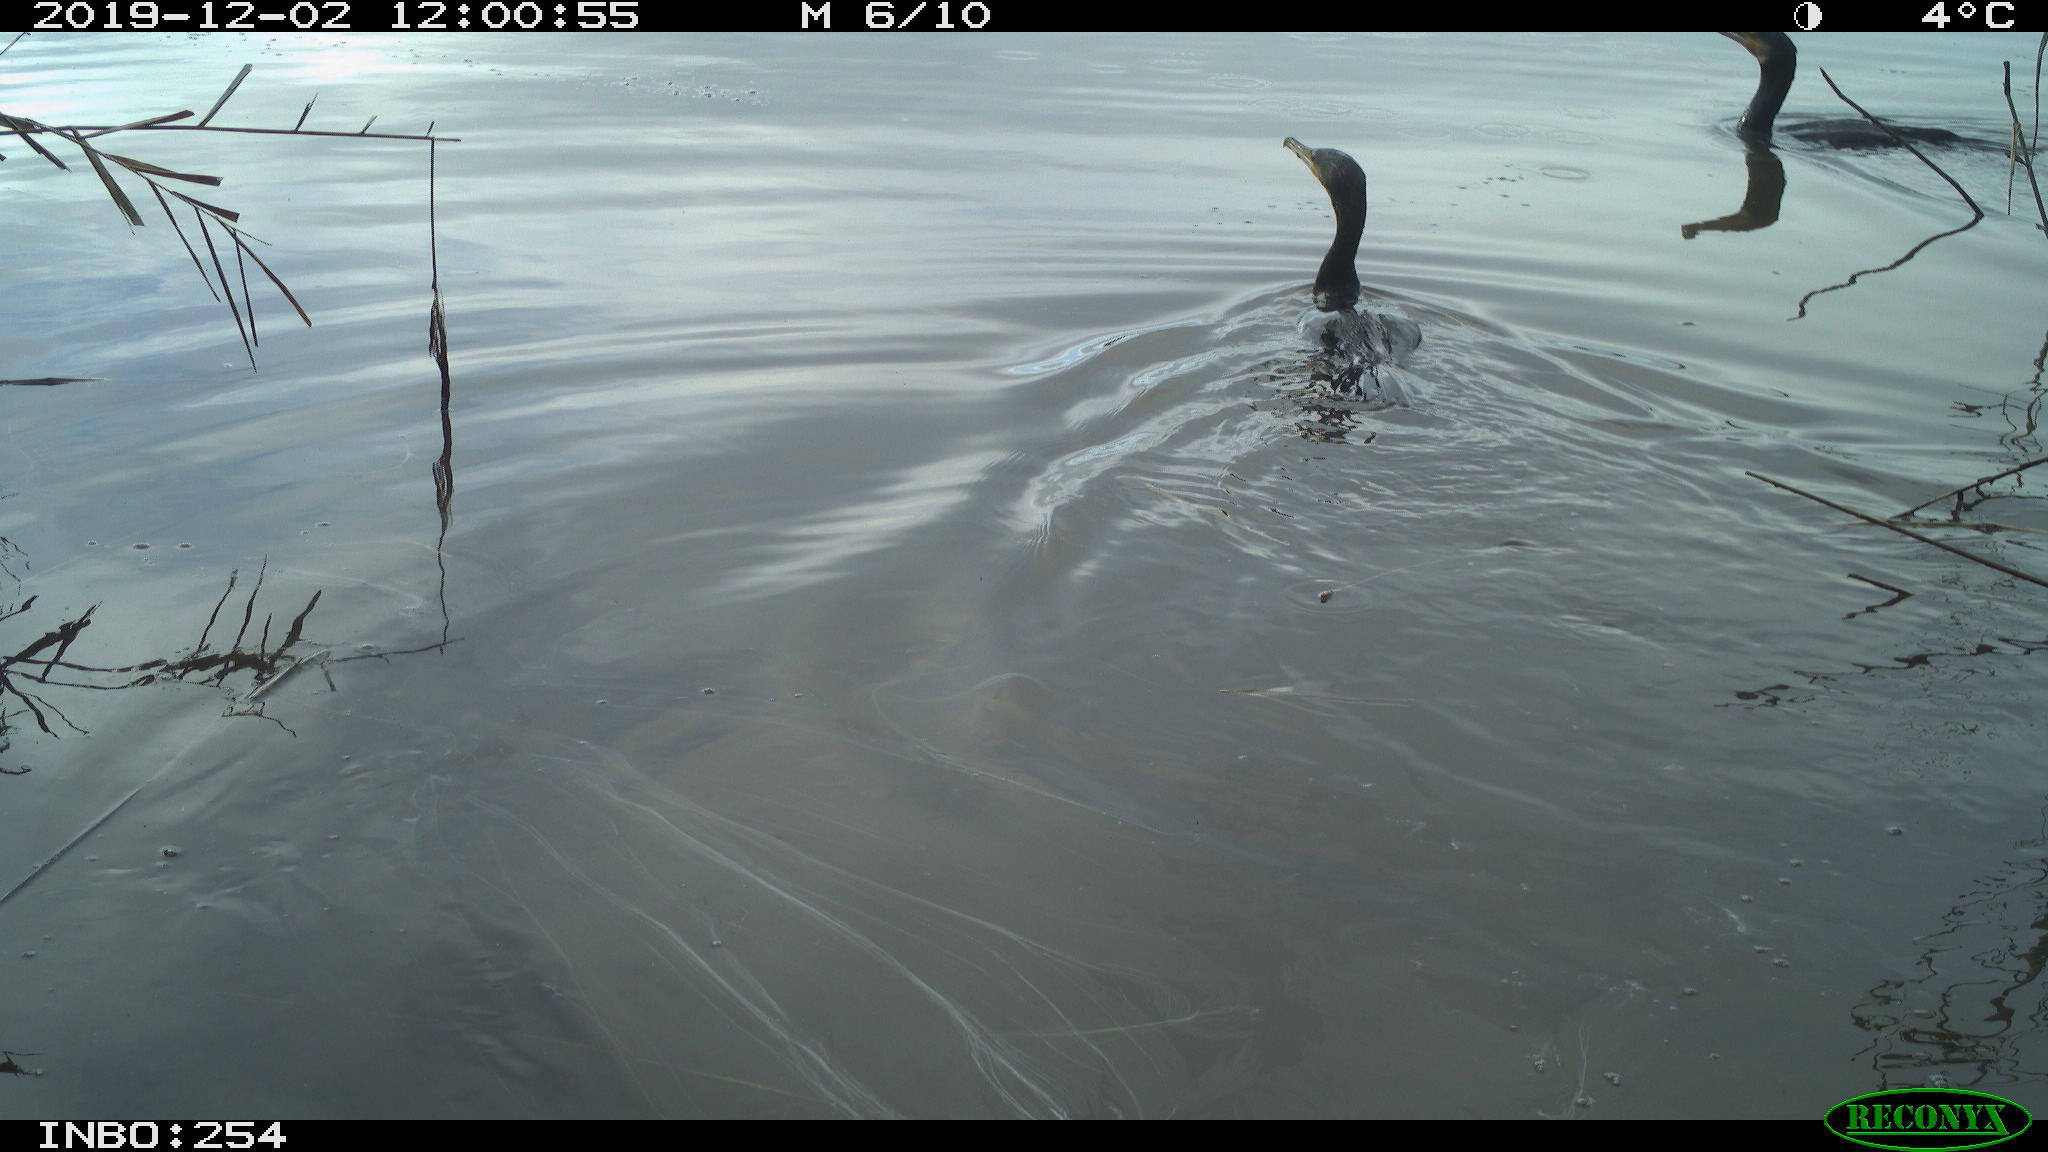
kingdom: Animalia
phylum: Chordata
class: Aves
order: Suliformes
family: Phalacrocoracidae
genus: Phalacrocorax
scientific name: Phalacrocorax carbo
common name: Great cormorant
